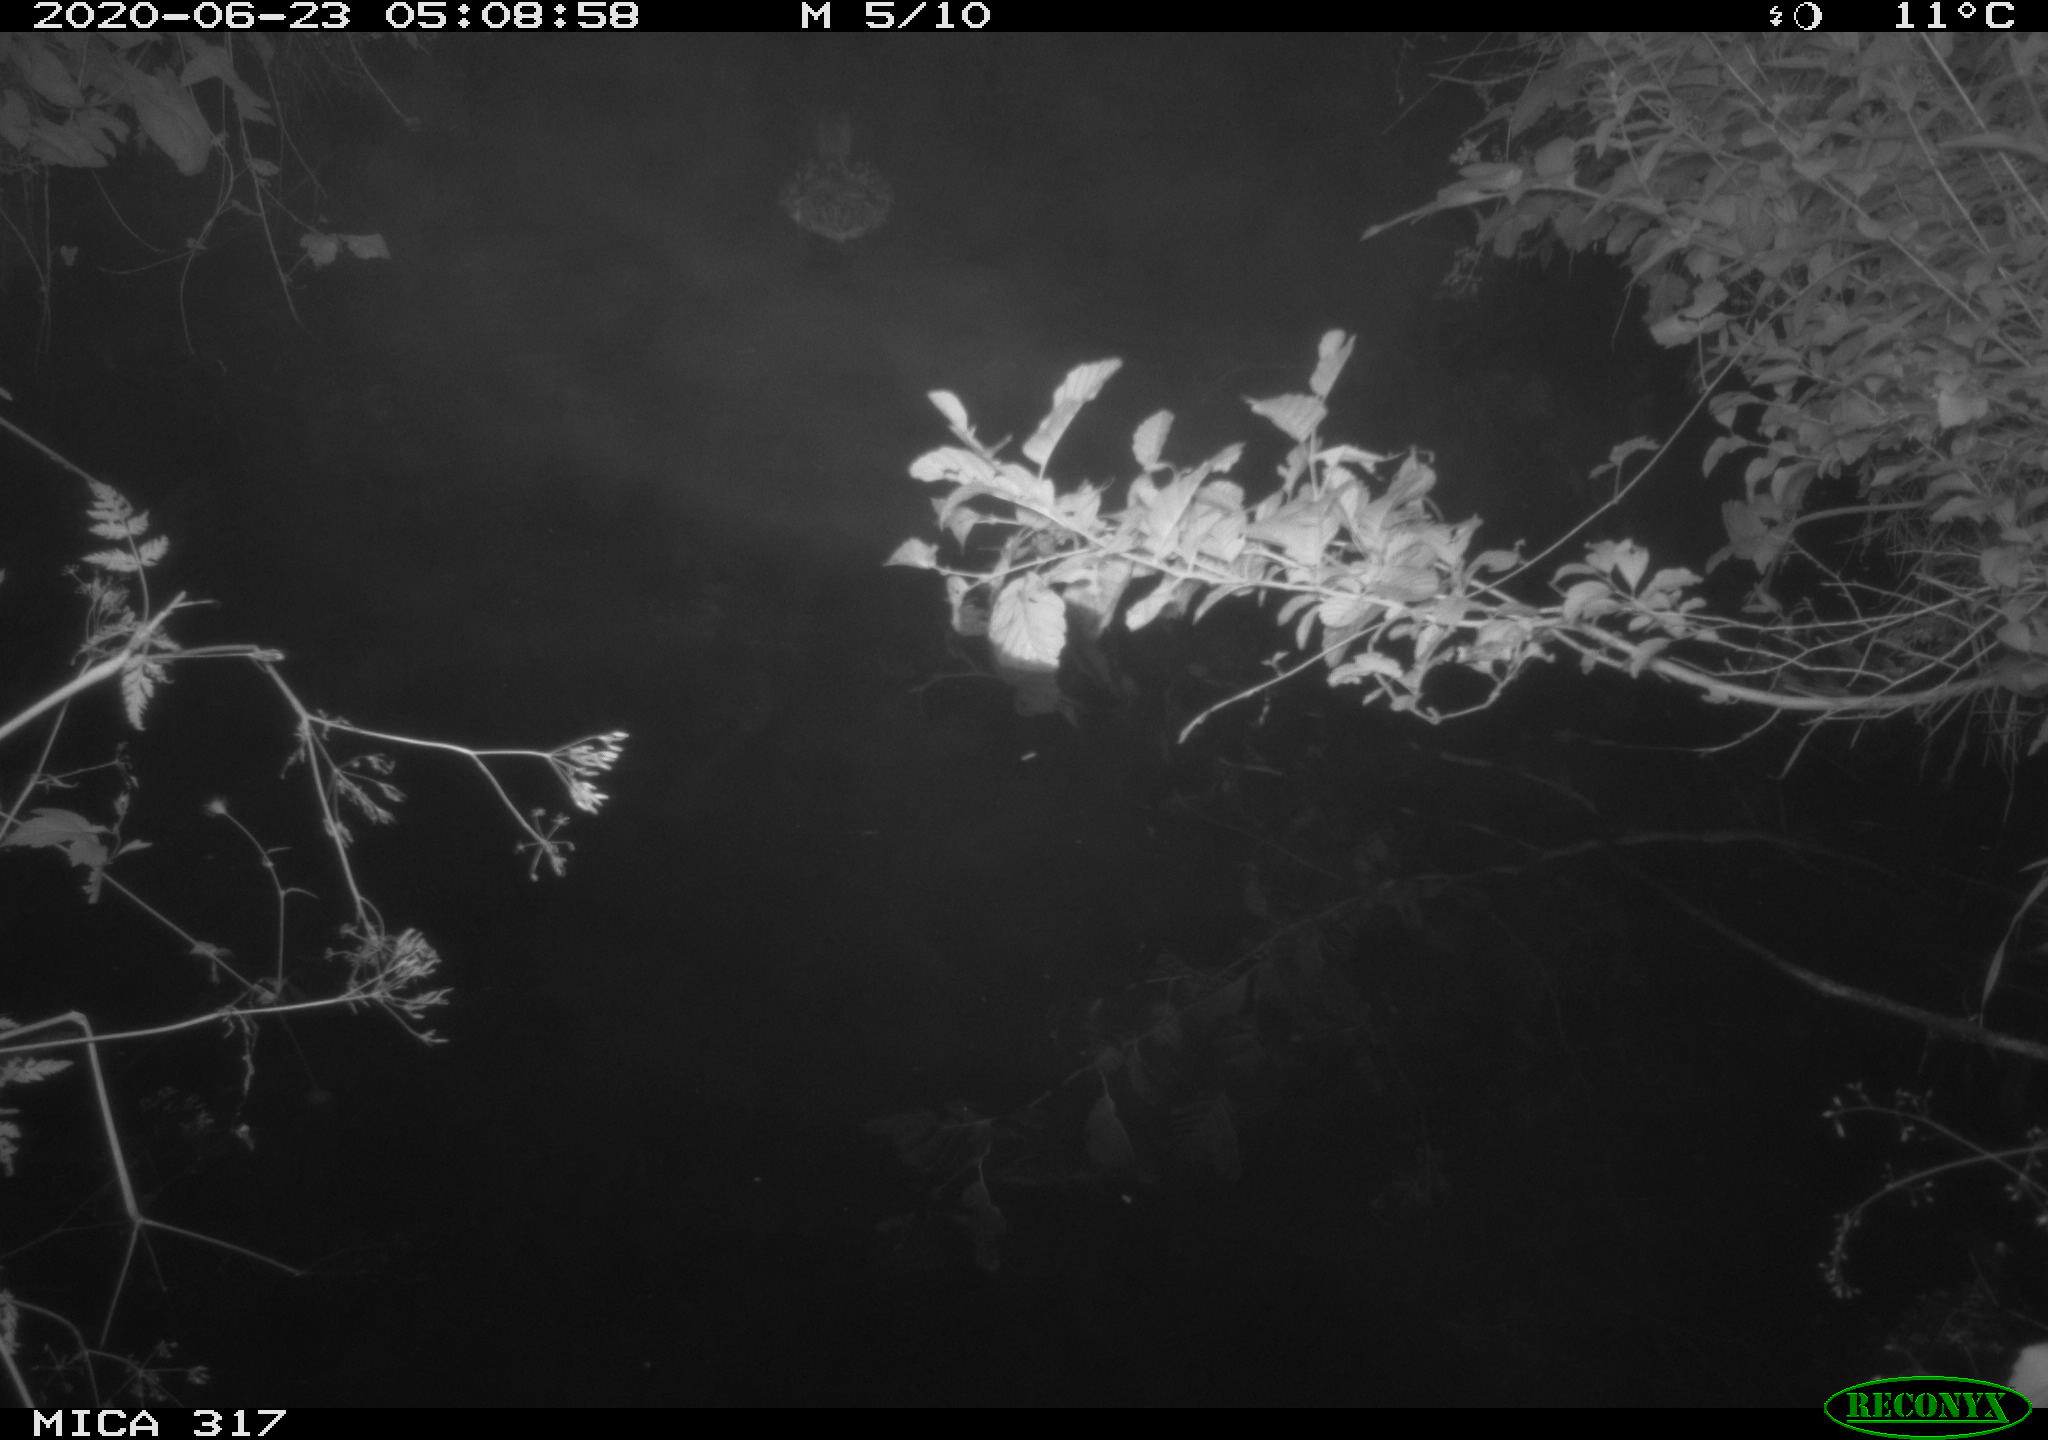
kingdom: Animalia
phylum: Chordata
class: Aves
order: Anseriformes
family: Anatidae
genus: Anas
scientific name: Anas platyrhynchos
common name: Mallard
